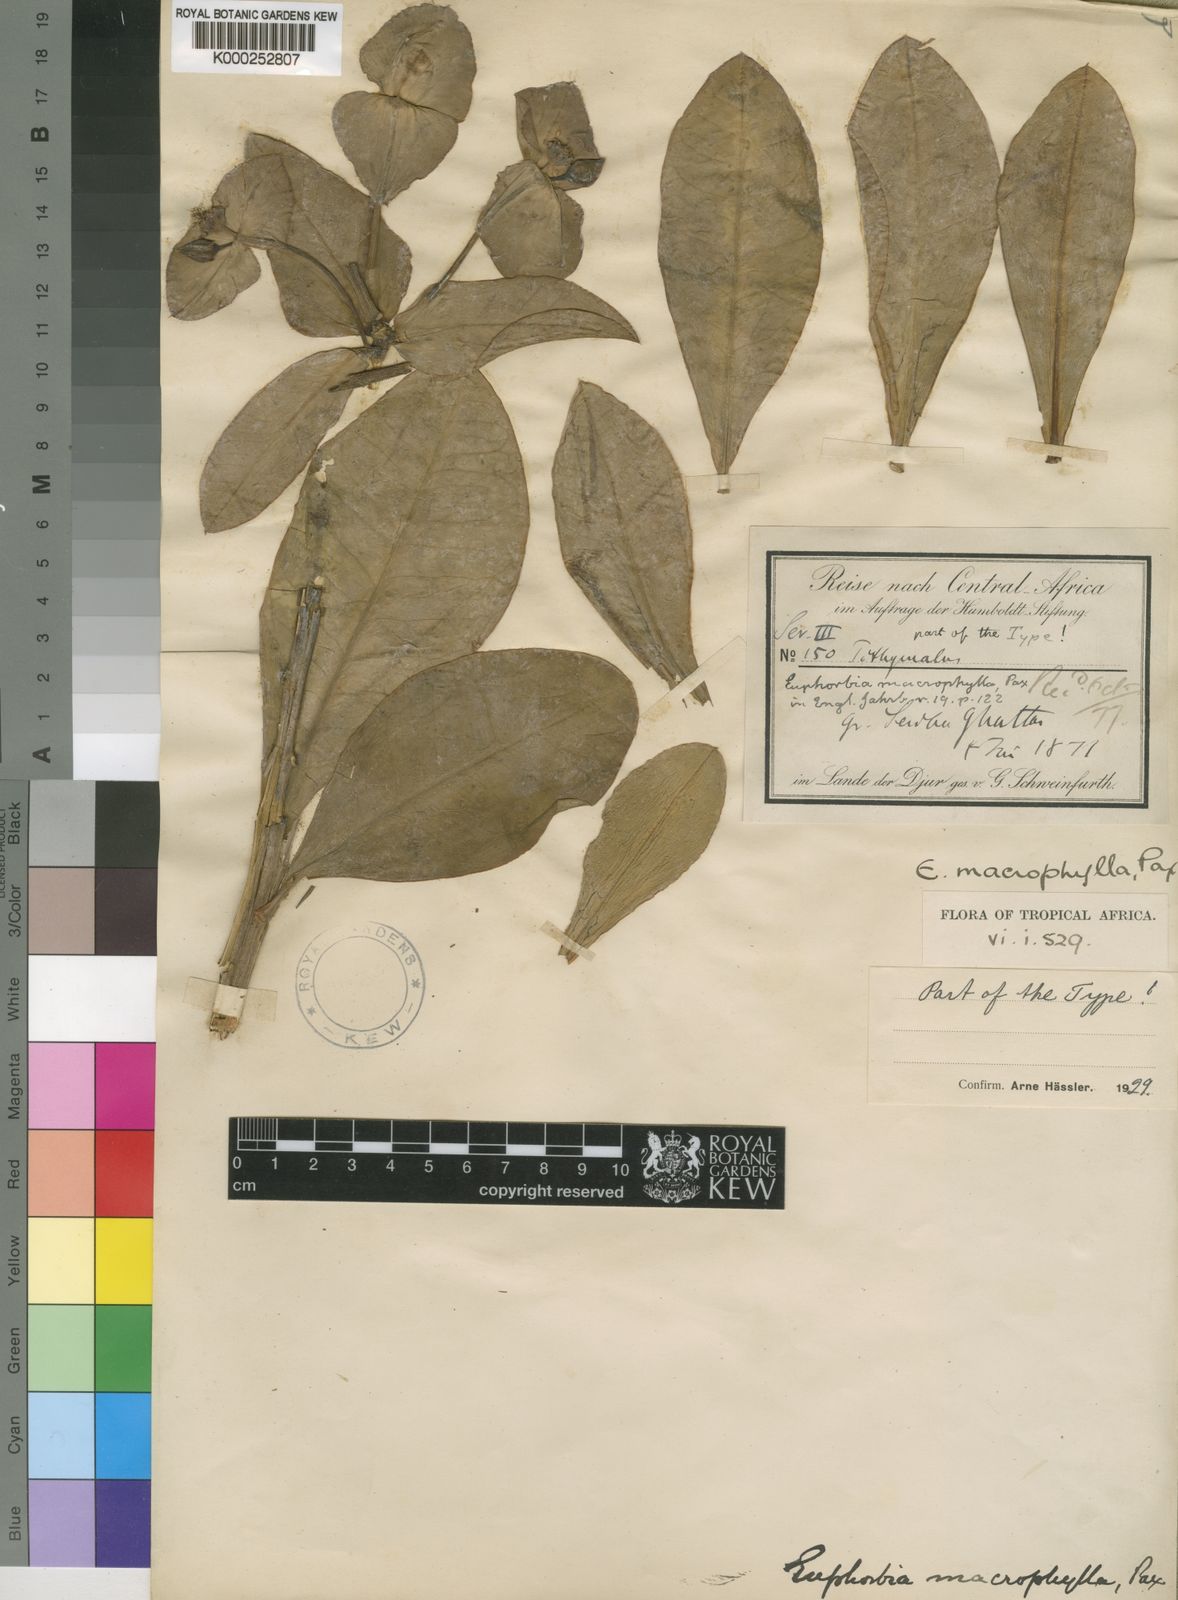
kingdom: Plantae
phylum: Tracheophyta
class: Magnoliopsida
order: Malpighiales
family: Euphorbiaceae
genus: Euphorbia
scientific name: Euphorbia macrophylla
